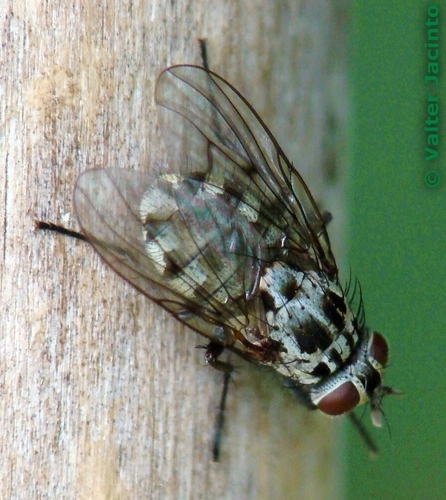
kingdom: Animalia
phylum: Arthropoda
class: Insecta
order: Diptera
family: Muscidae
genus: Phaonia
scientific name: Phaonia trimaculata
